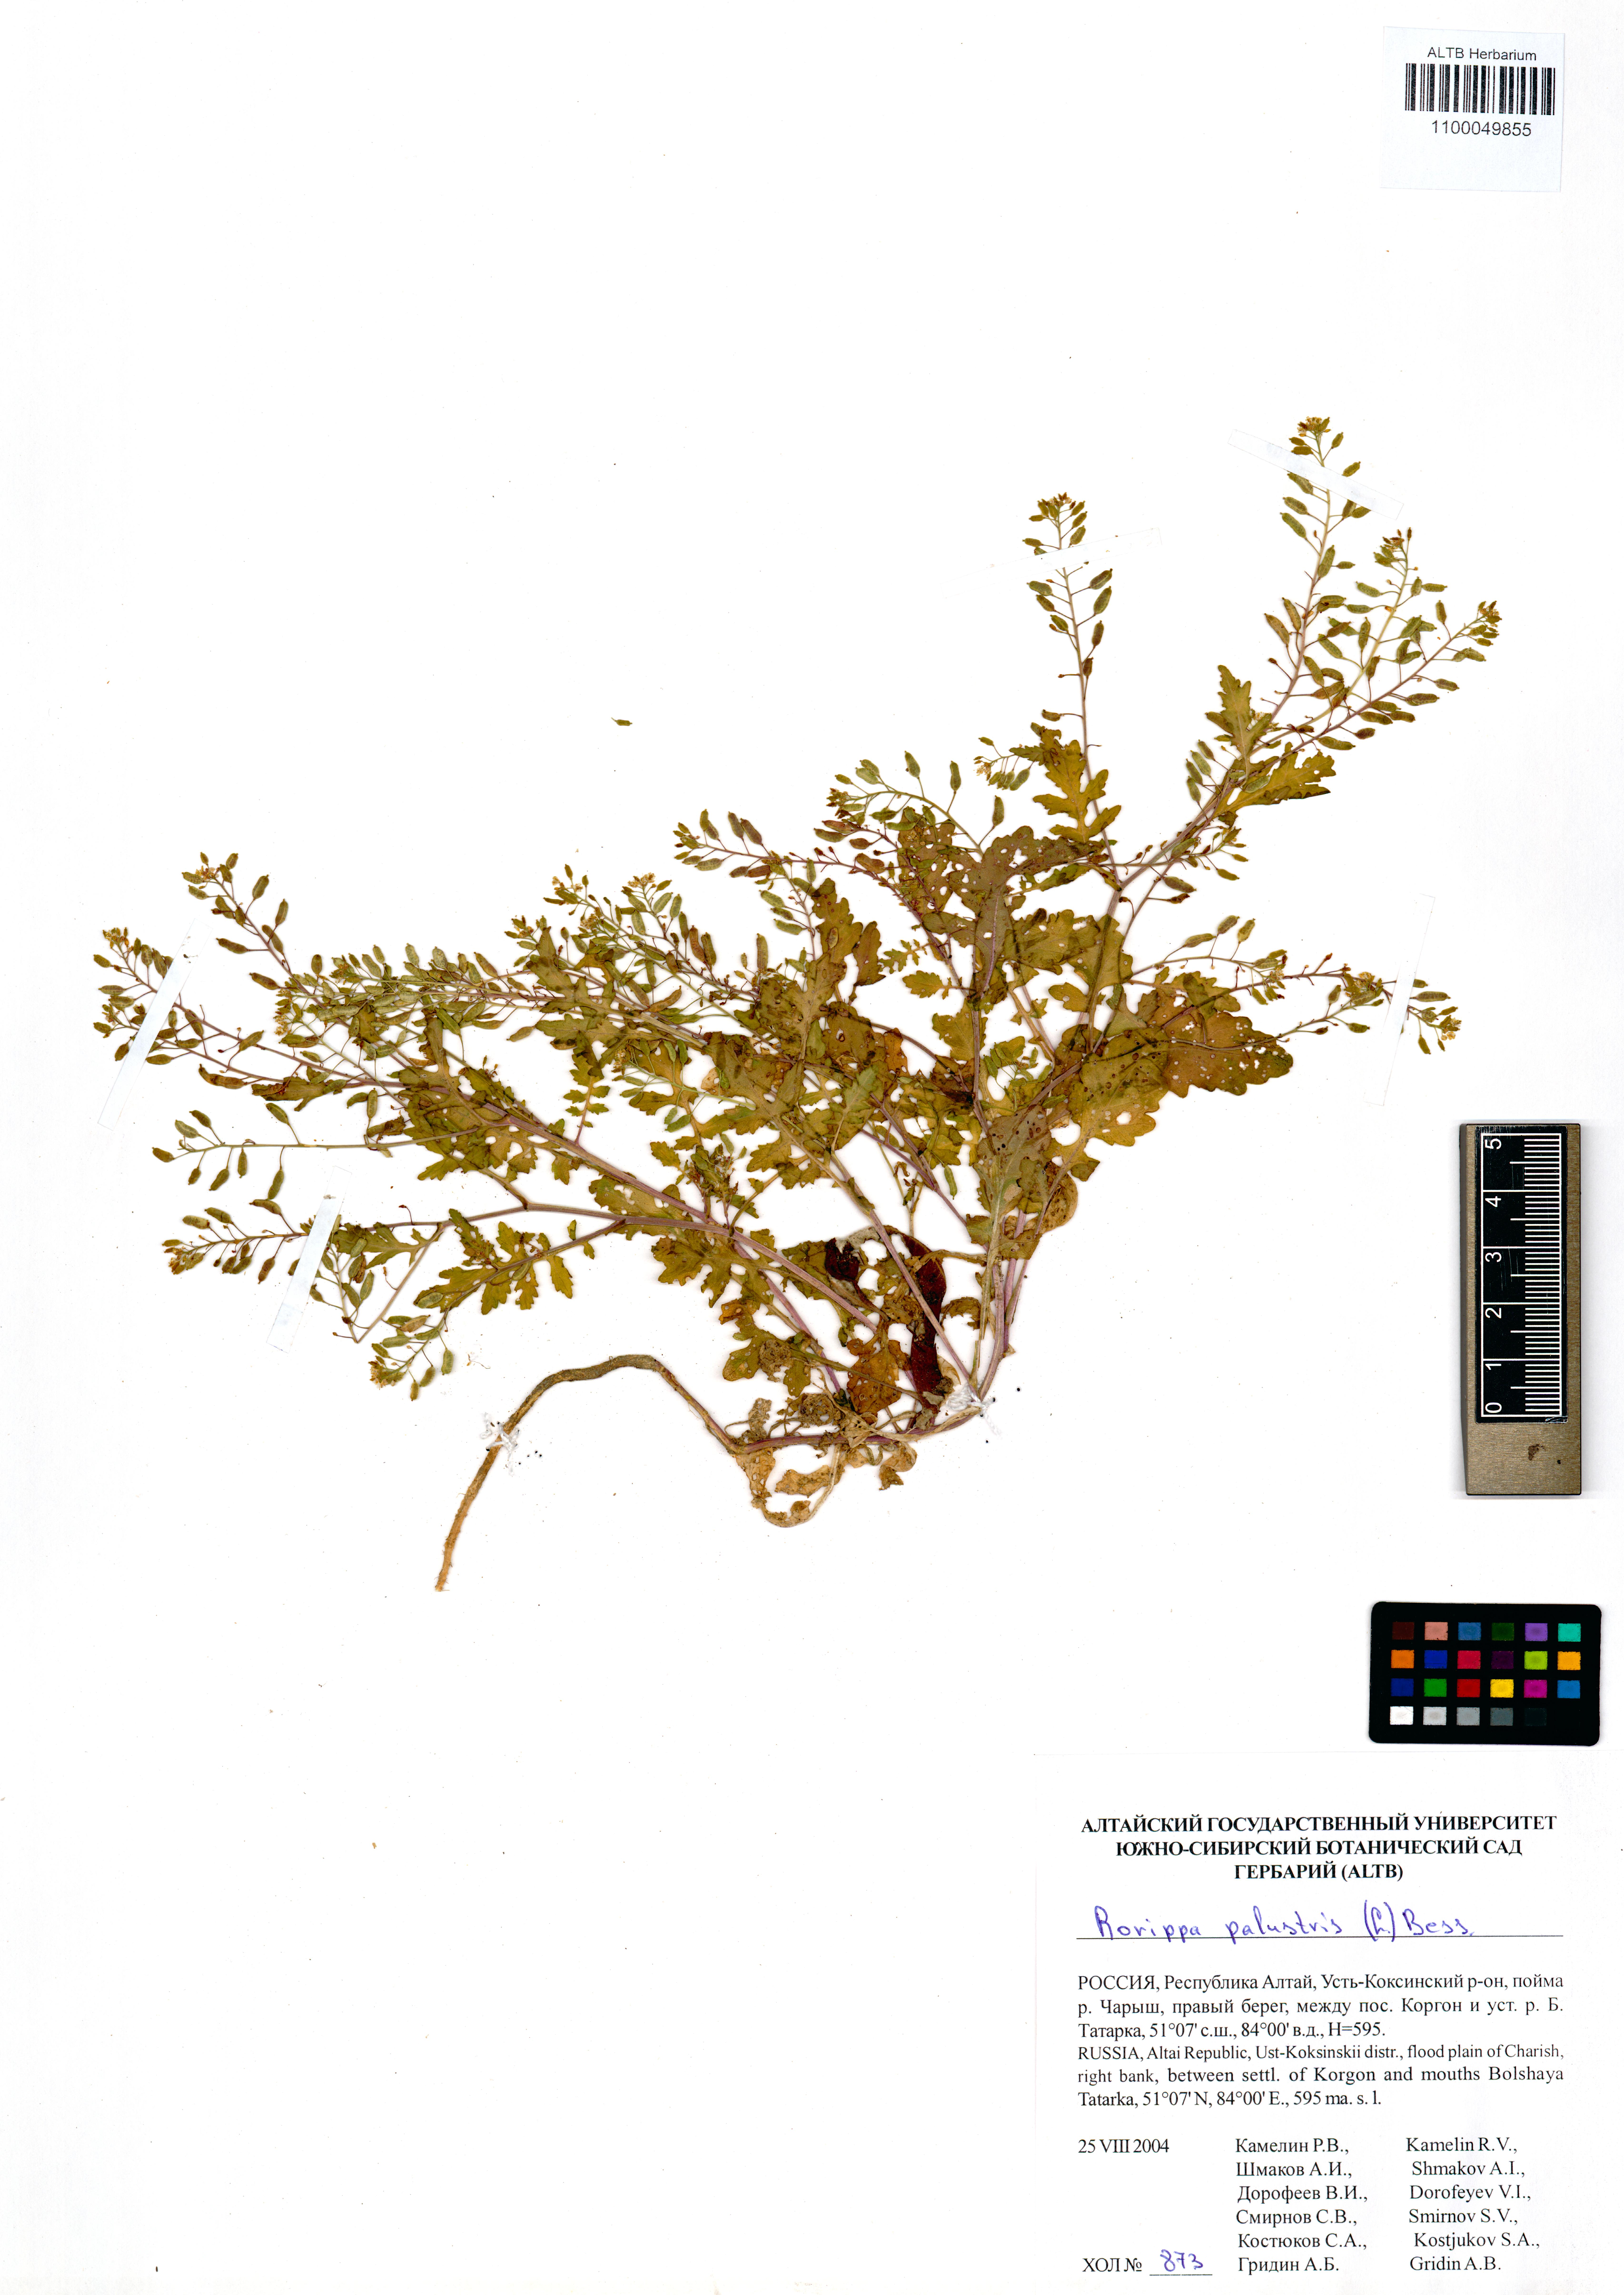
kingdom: Plantae
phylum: Tracheophyta
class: Magnoliopsida
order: Brassicales
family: Brassicaceae
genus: Rorippa
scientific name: Rorippa palustris
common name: Marsh yellow-cress
